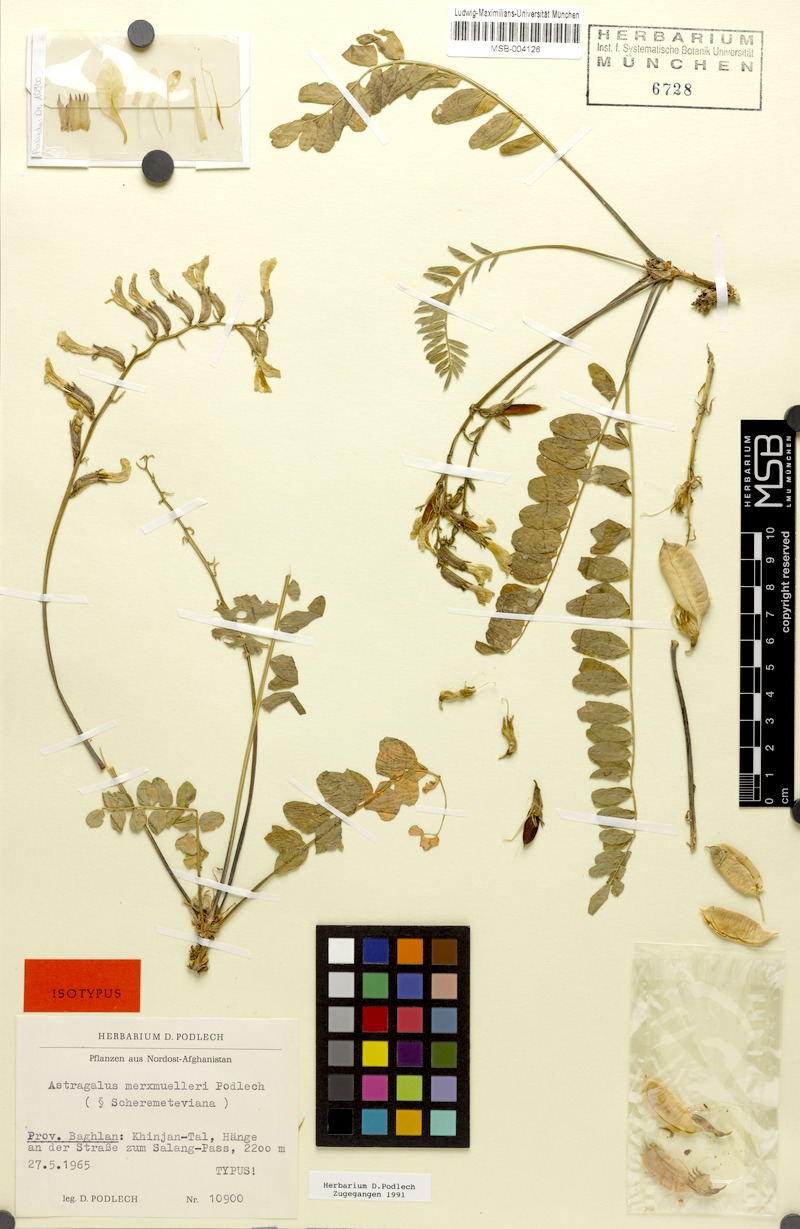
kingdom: Plantae
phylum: Tracheophyta
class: Magnoliopsida
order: Fabales
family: Fabaceae
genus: Astragalus
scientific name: Astragalus merxmuelleri
